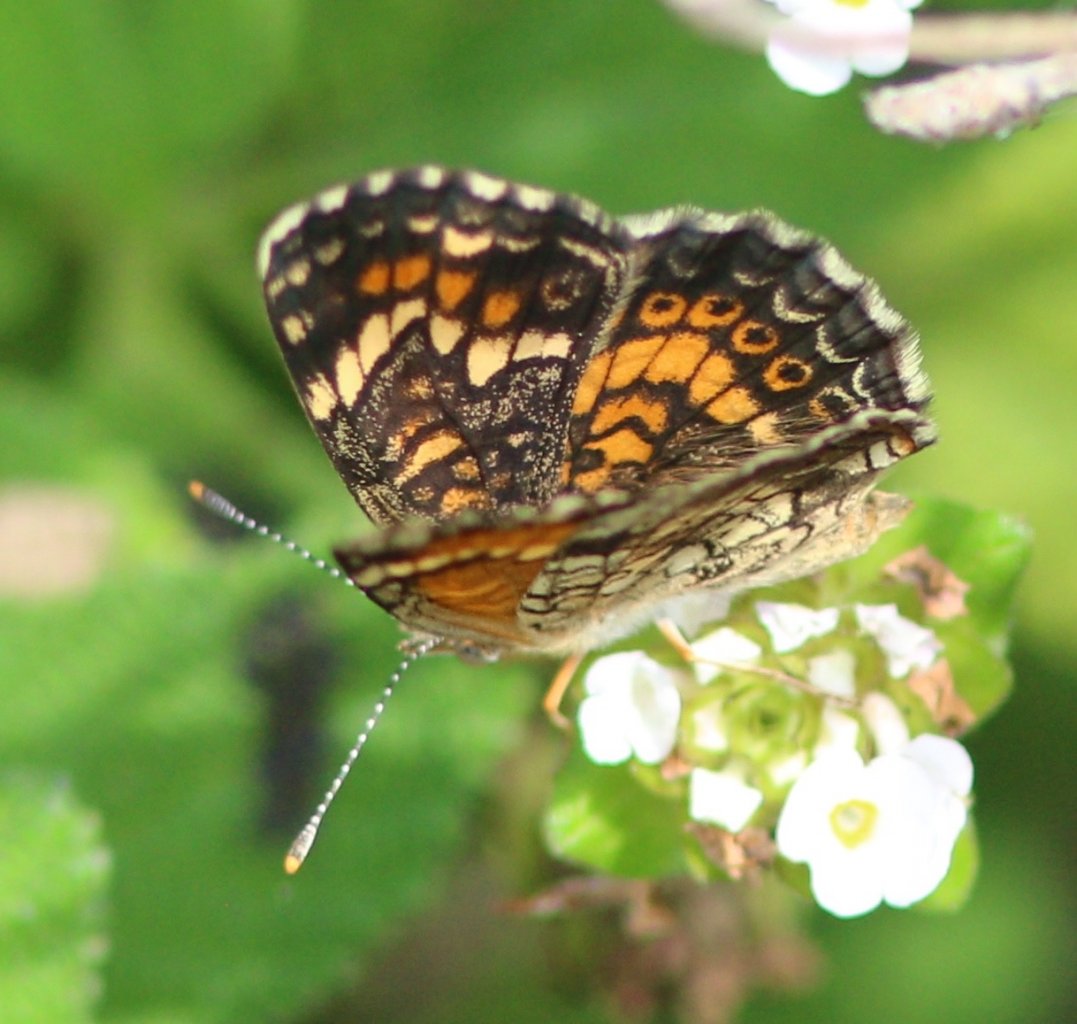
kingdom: Animalia
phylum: Arthropoda
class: Insecta
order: Lepidoptera
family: Nymphalidae
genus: Phyciodes
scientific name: Phyciodes phaon
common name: Phaon Crescent
